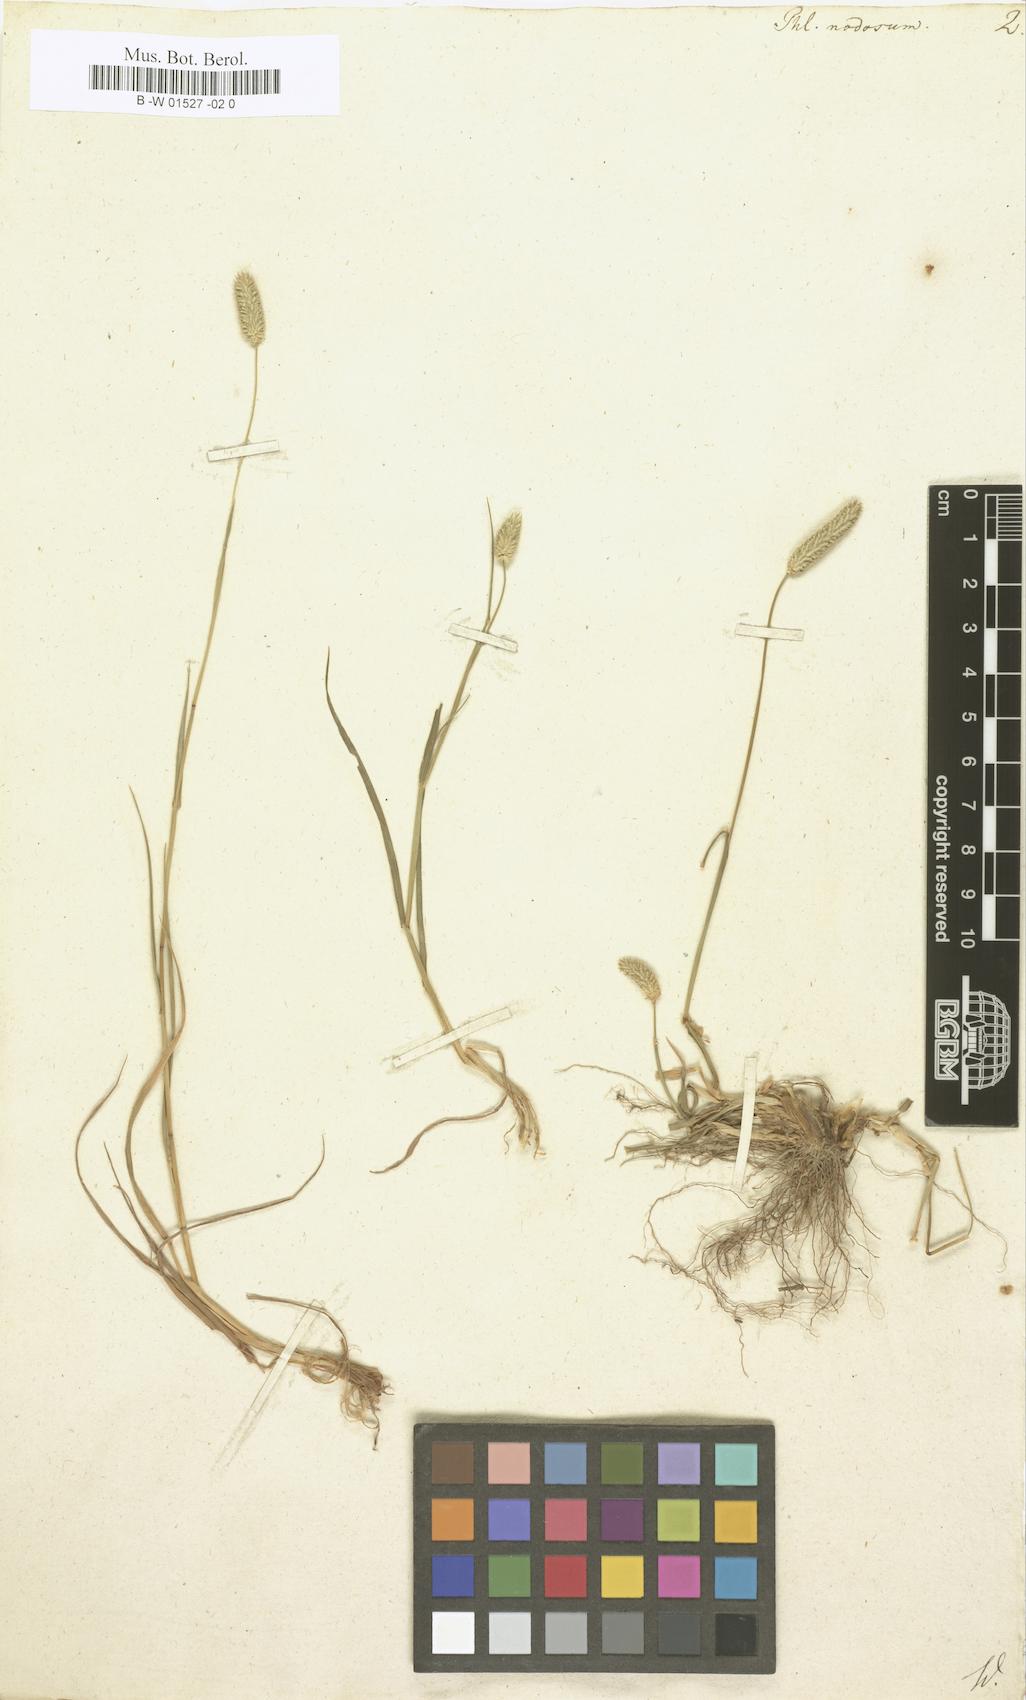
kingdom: Plantae
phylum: Tracheophyta
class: Liliopsida
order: Poales
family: Poaceae
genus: Phleum
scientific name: Phleum pratense
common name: Timothy grass
